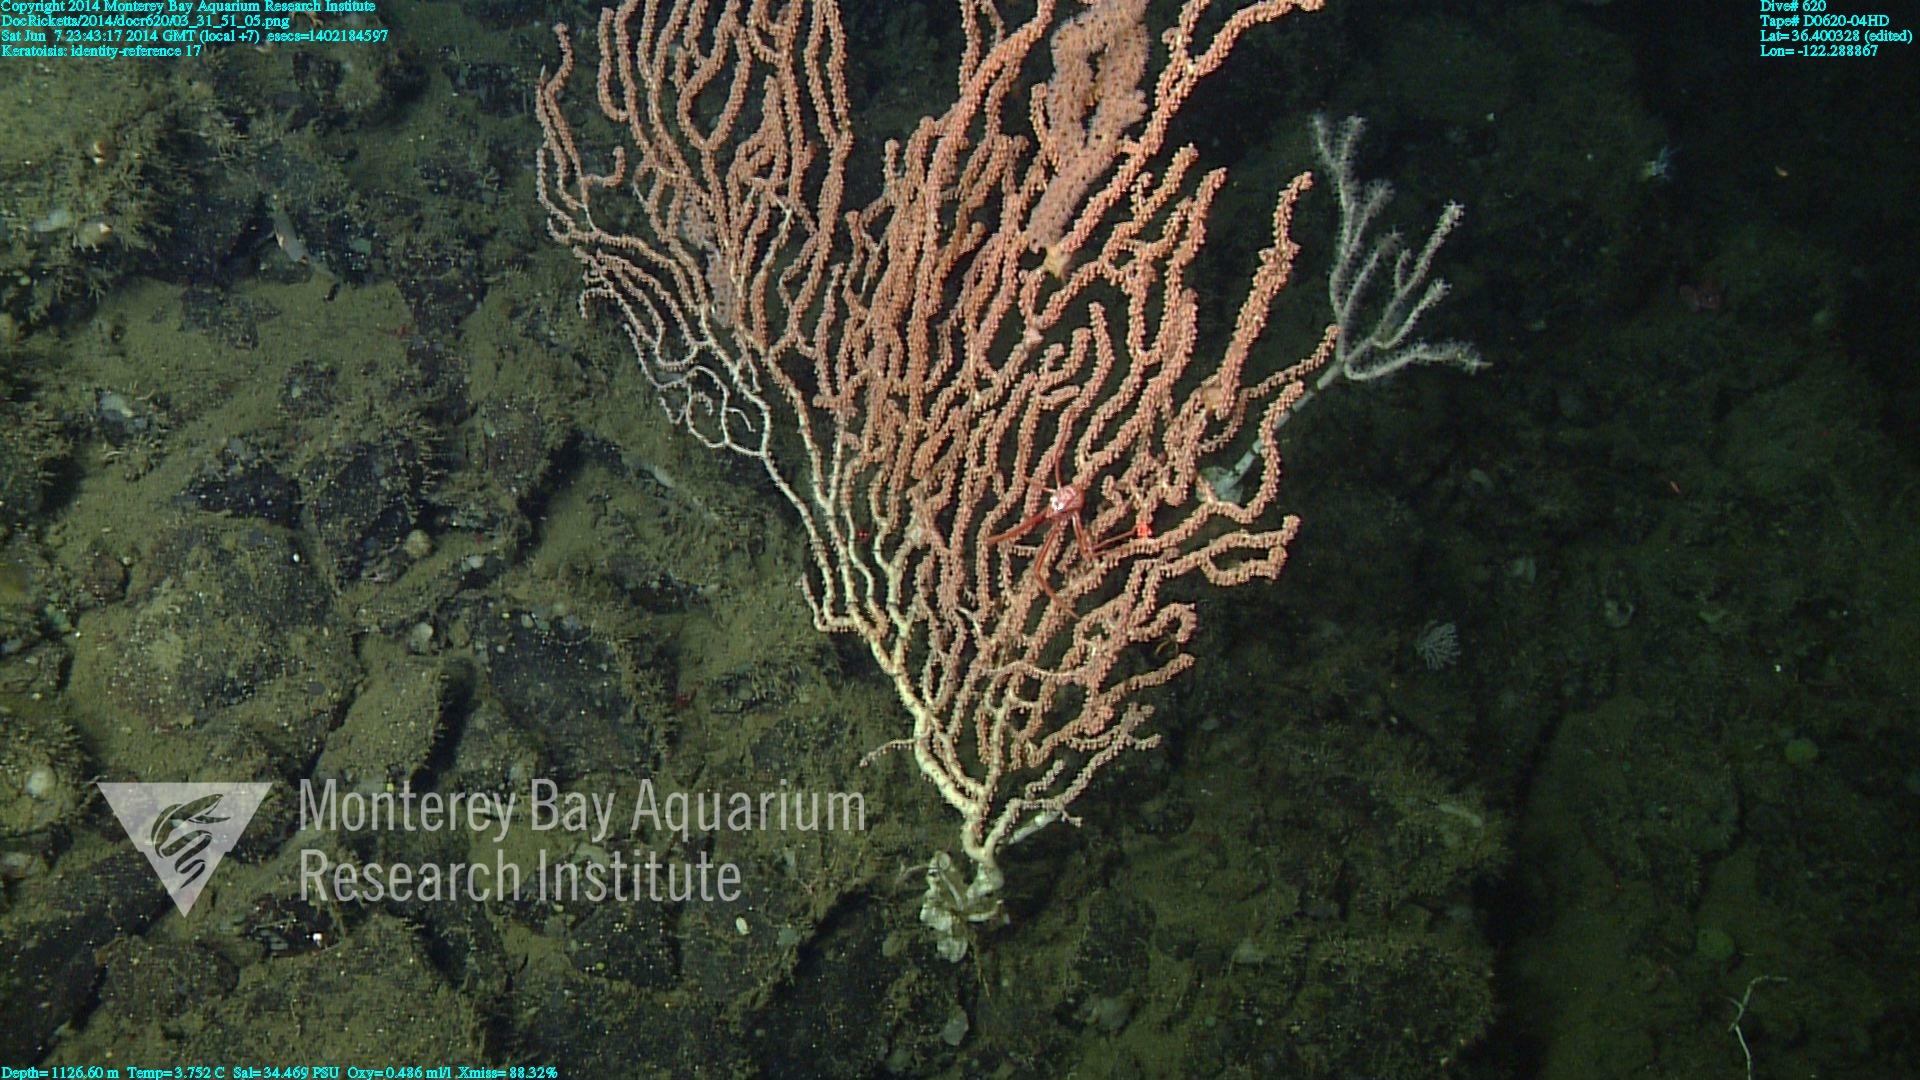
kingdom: Animalia
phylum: Cnidaria
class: Anthozoa
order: Scleralcyonacea
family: Keratoisididae
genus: Keratoisis
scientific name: Keratoisis
